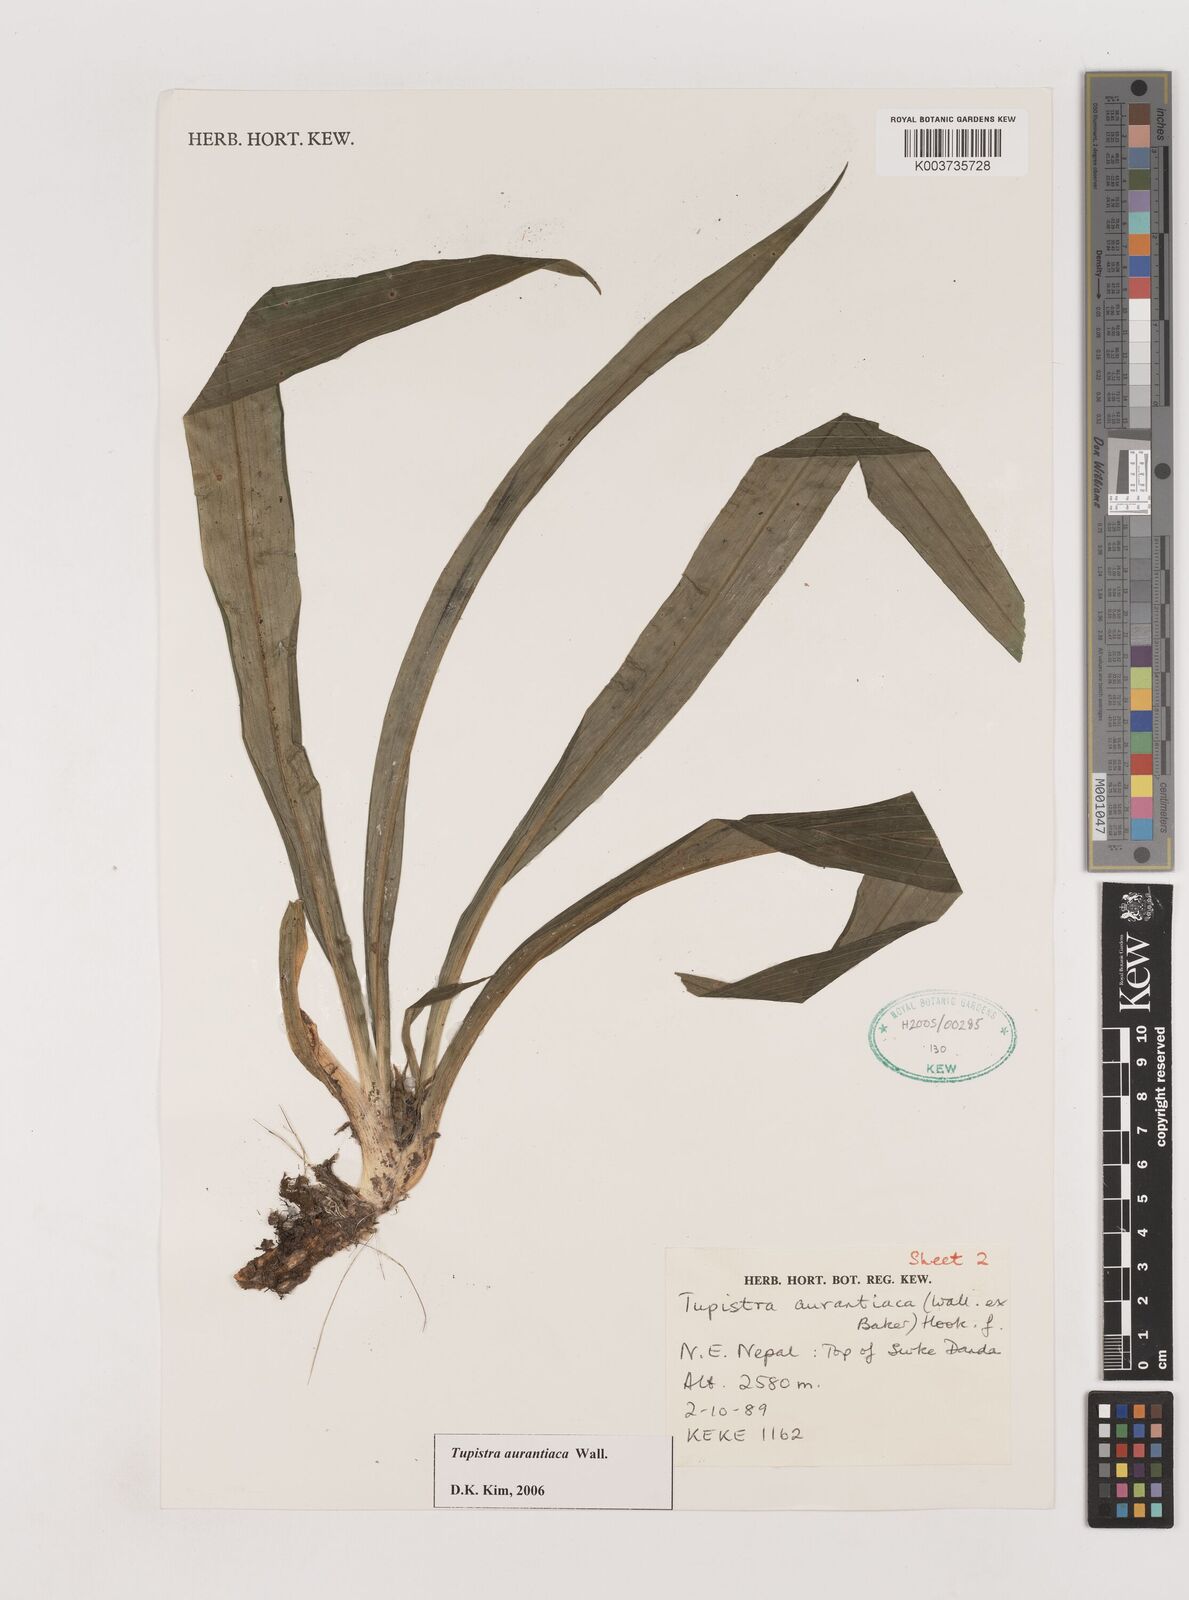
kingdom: Plantae
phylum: Tracheophyta
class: Liliopsida
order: Asparagales
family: Asparagaceae
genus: Rohdea
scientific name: Rohdea nepalensis
